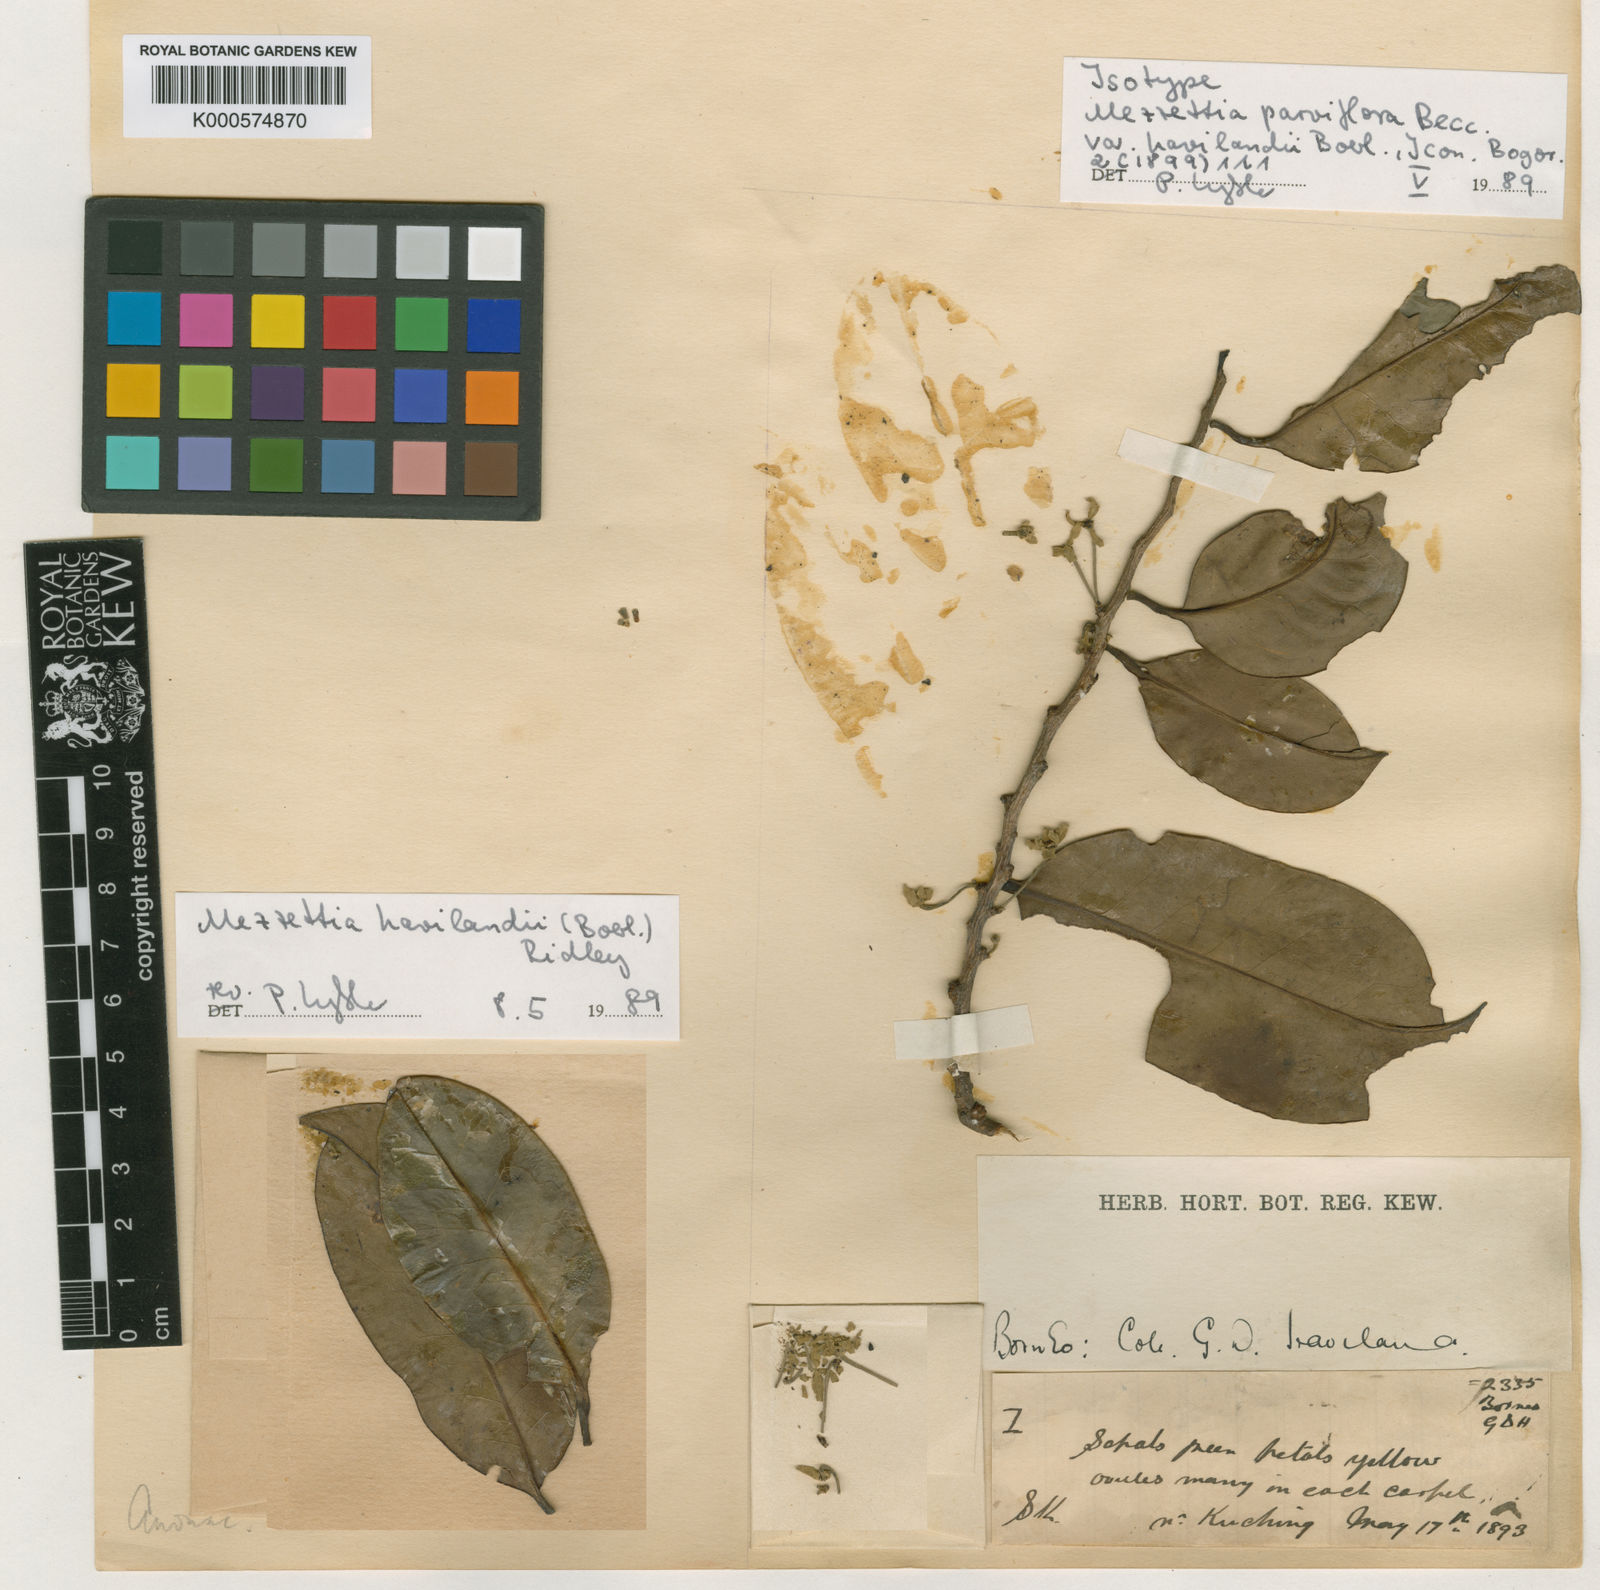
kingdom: Plantae
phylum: Tracheophyta
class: Magnoliopsida
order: Magnoliales
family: Annonaceae
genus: Mezzettia
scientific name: Mezzettia havilandii
